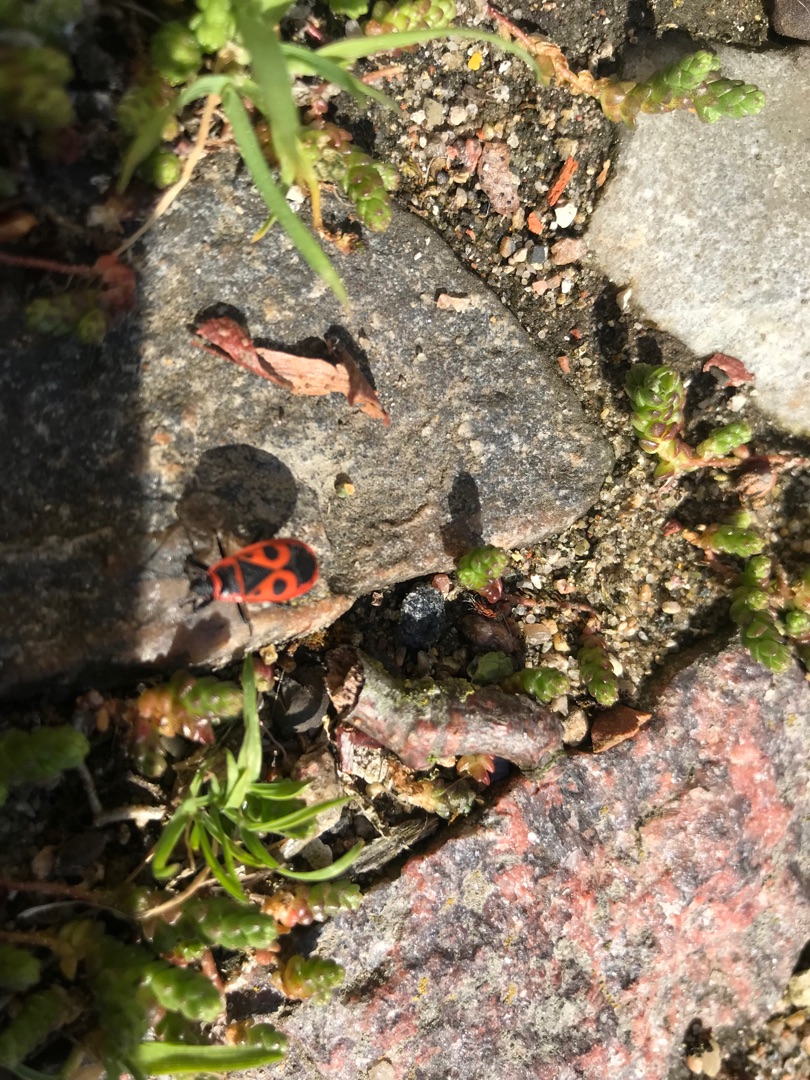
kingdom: Animalia
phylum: Arthropoda
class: Insecta
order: Hemiptera
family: Pyrrhocoridae
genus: Pyrrhocoris
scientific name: Pyrrhocoris apterus
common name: Ildtæge
